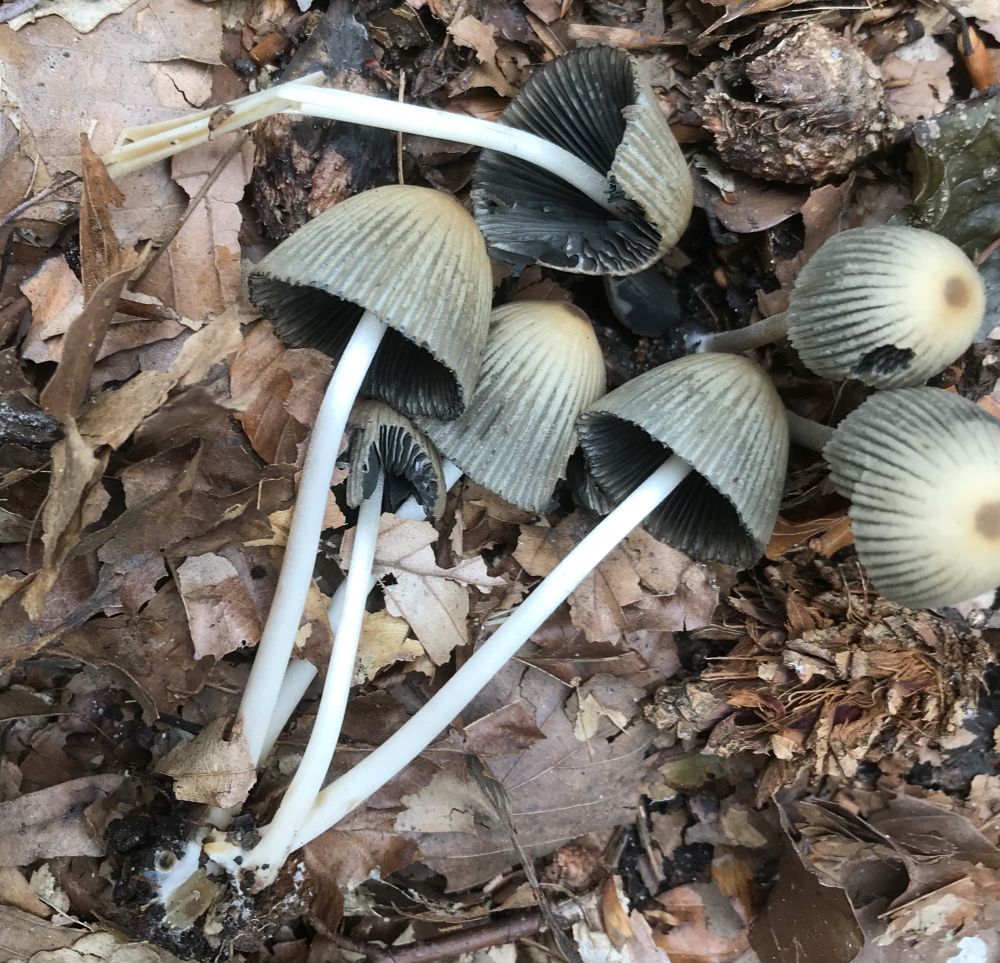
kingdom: Fungi
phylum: Basidiomycota
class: Agaricomycetes
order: Agaricales
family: Psathyrellaceae
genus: Coprinellus
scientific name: Coprinellus
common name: blækhat
